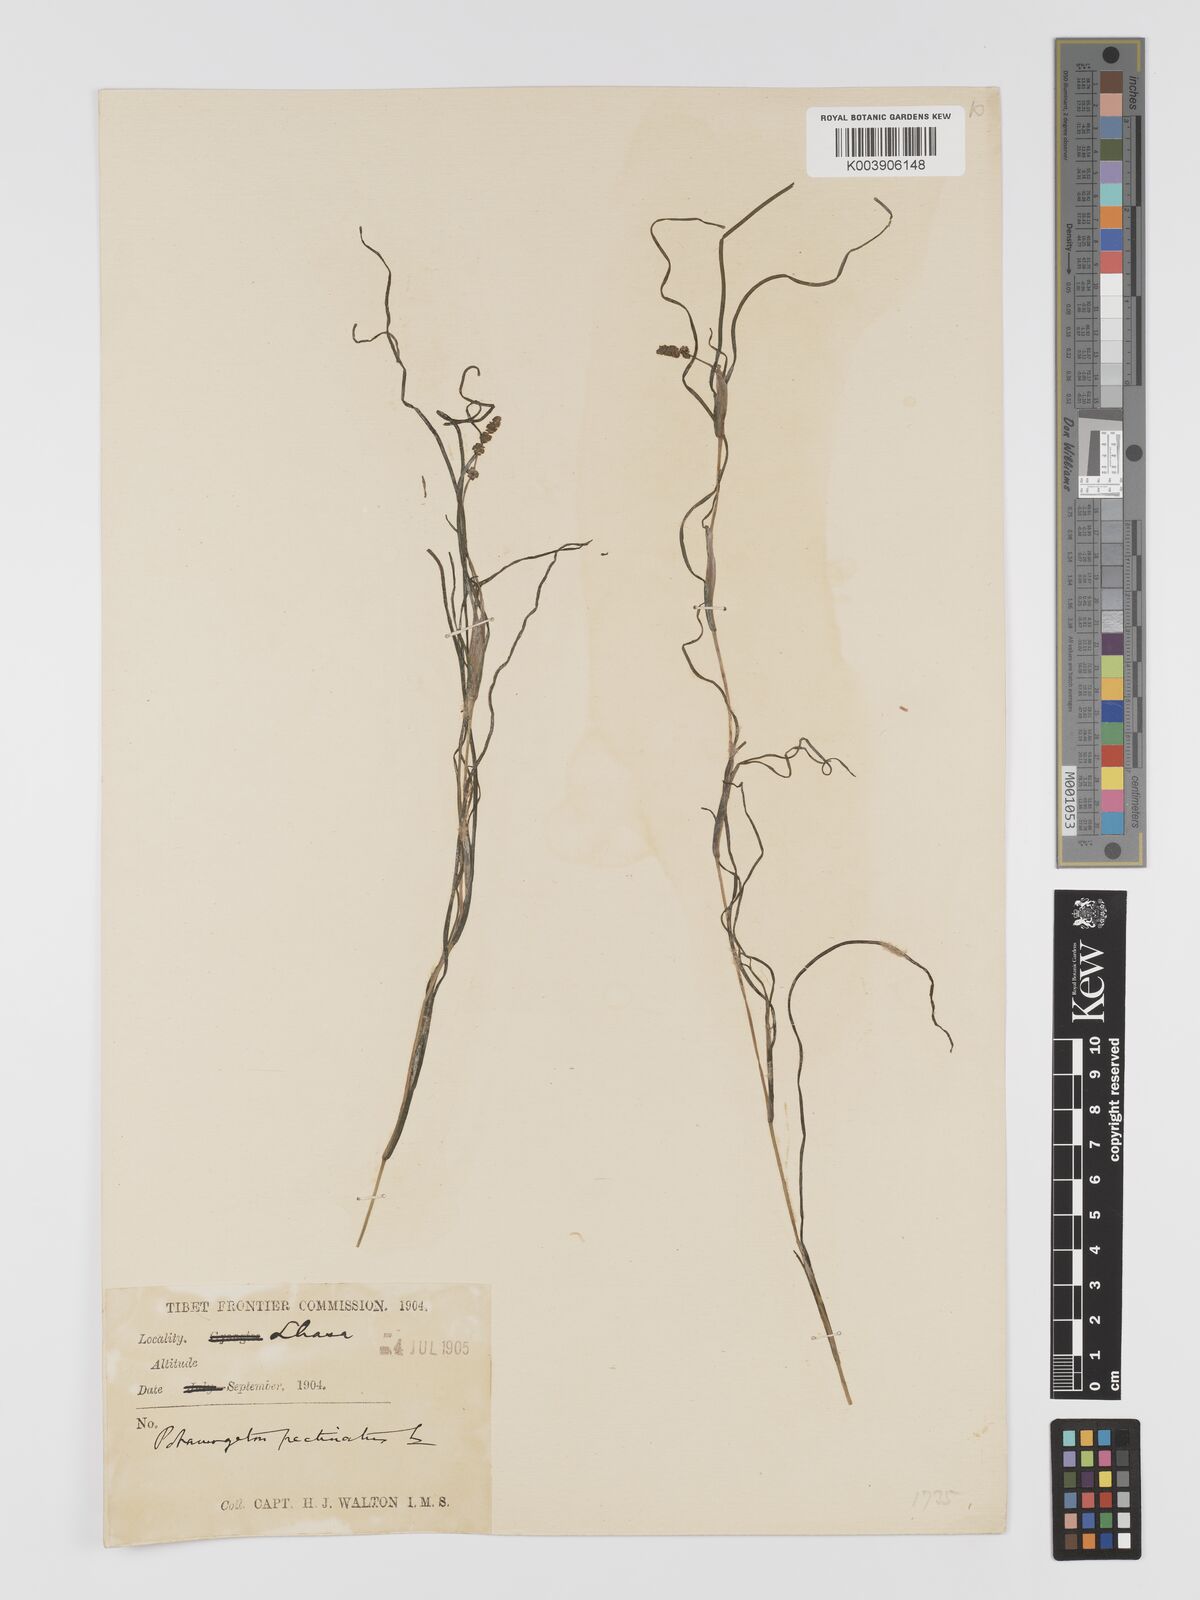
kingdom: Plantae
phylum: Tracheophyta
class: Liliopsida
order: Alismatales
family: Potamogetonaceae
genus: Stuckenia
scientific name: Stuckenia pectinata
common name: Sago pondweed
